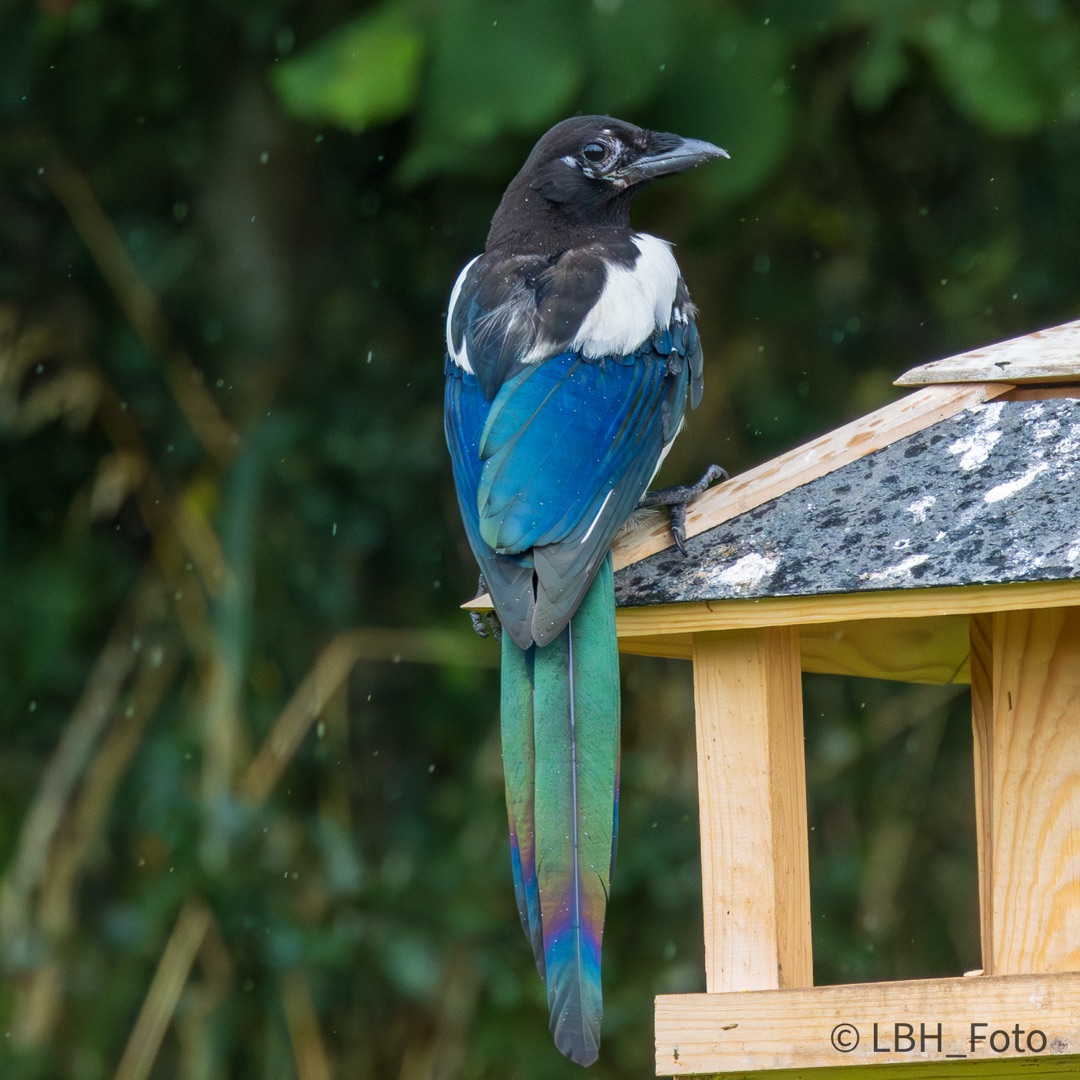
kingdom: Animalia
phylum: Chordata
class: Aves
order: Passeriformes
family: Corvidae
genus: Pica
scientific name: Pica pica
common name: Husskade
